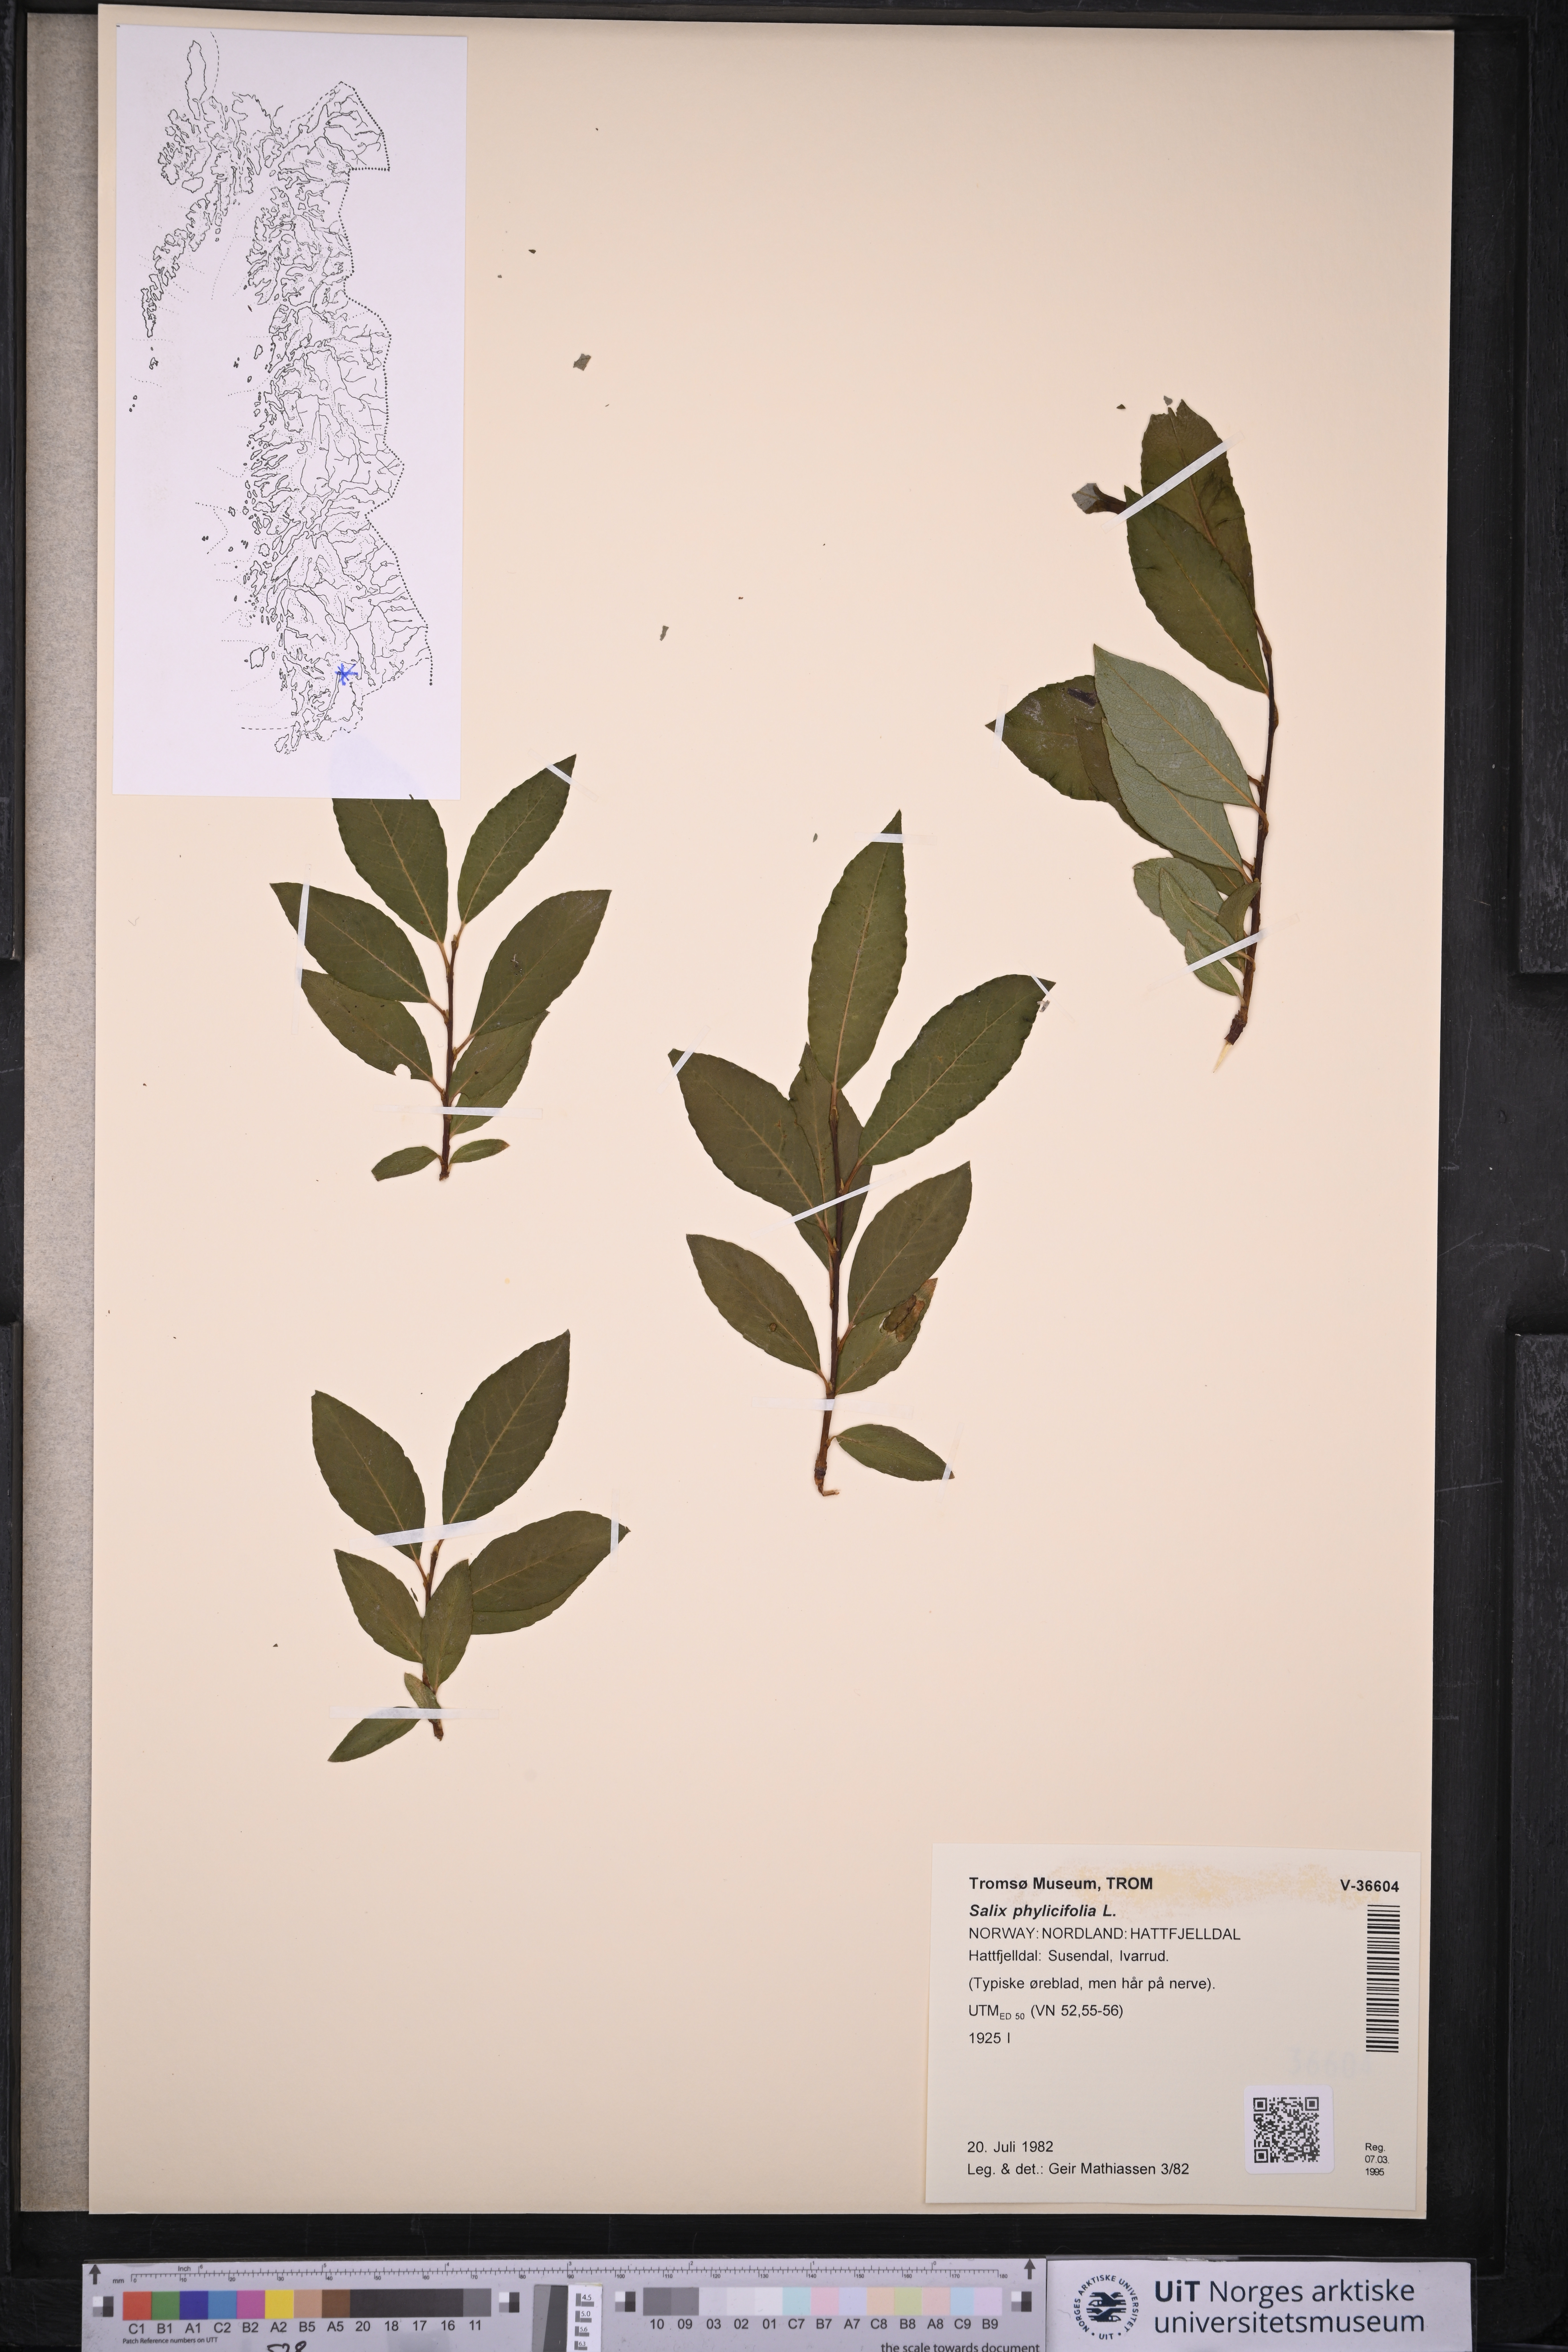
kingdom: Plantae
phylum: Tracheophyta
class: Magnoliopsida
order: Malpighiales
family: Salicaceae
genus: Salix
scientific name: Salix phylicifolia
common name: Tea-leaved willow
